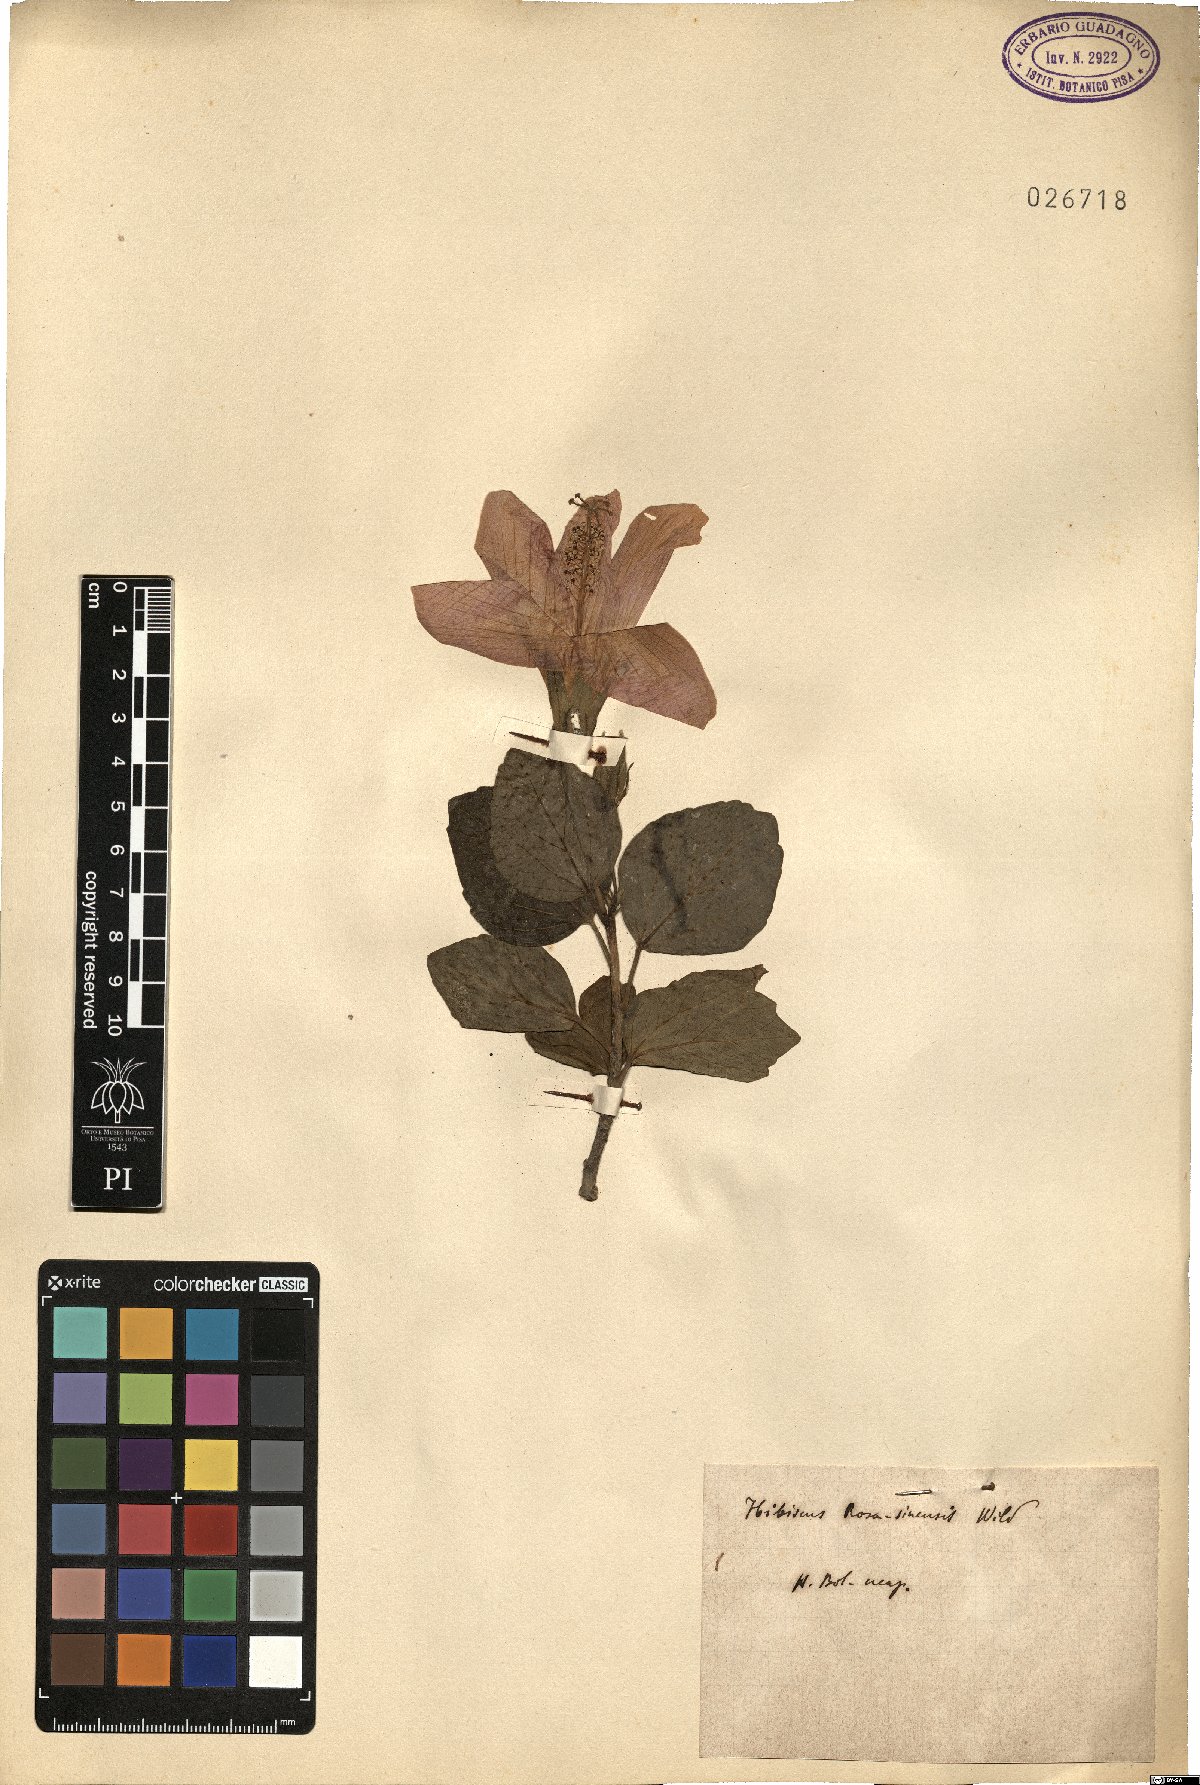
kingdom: Plantae
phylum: Tracheophyta
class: Magnoliopsida
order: Malvales
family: Malvaceae
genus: Hibiscus
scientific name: Hibiscus rosa-sinensis
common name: Hibiscus
